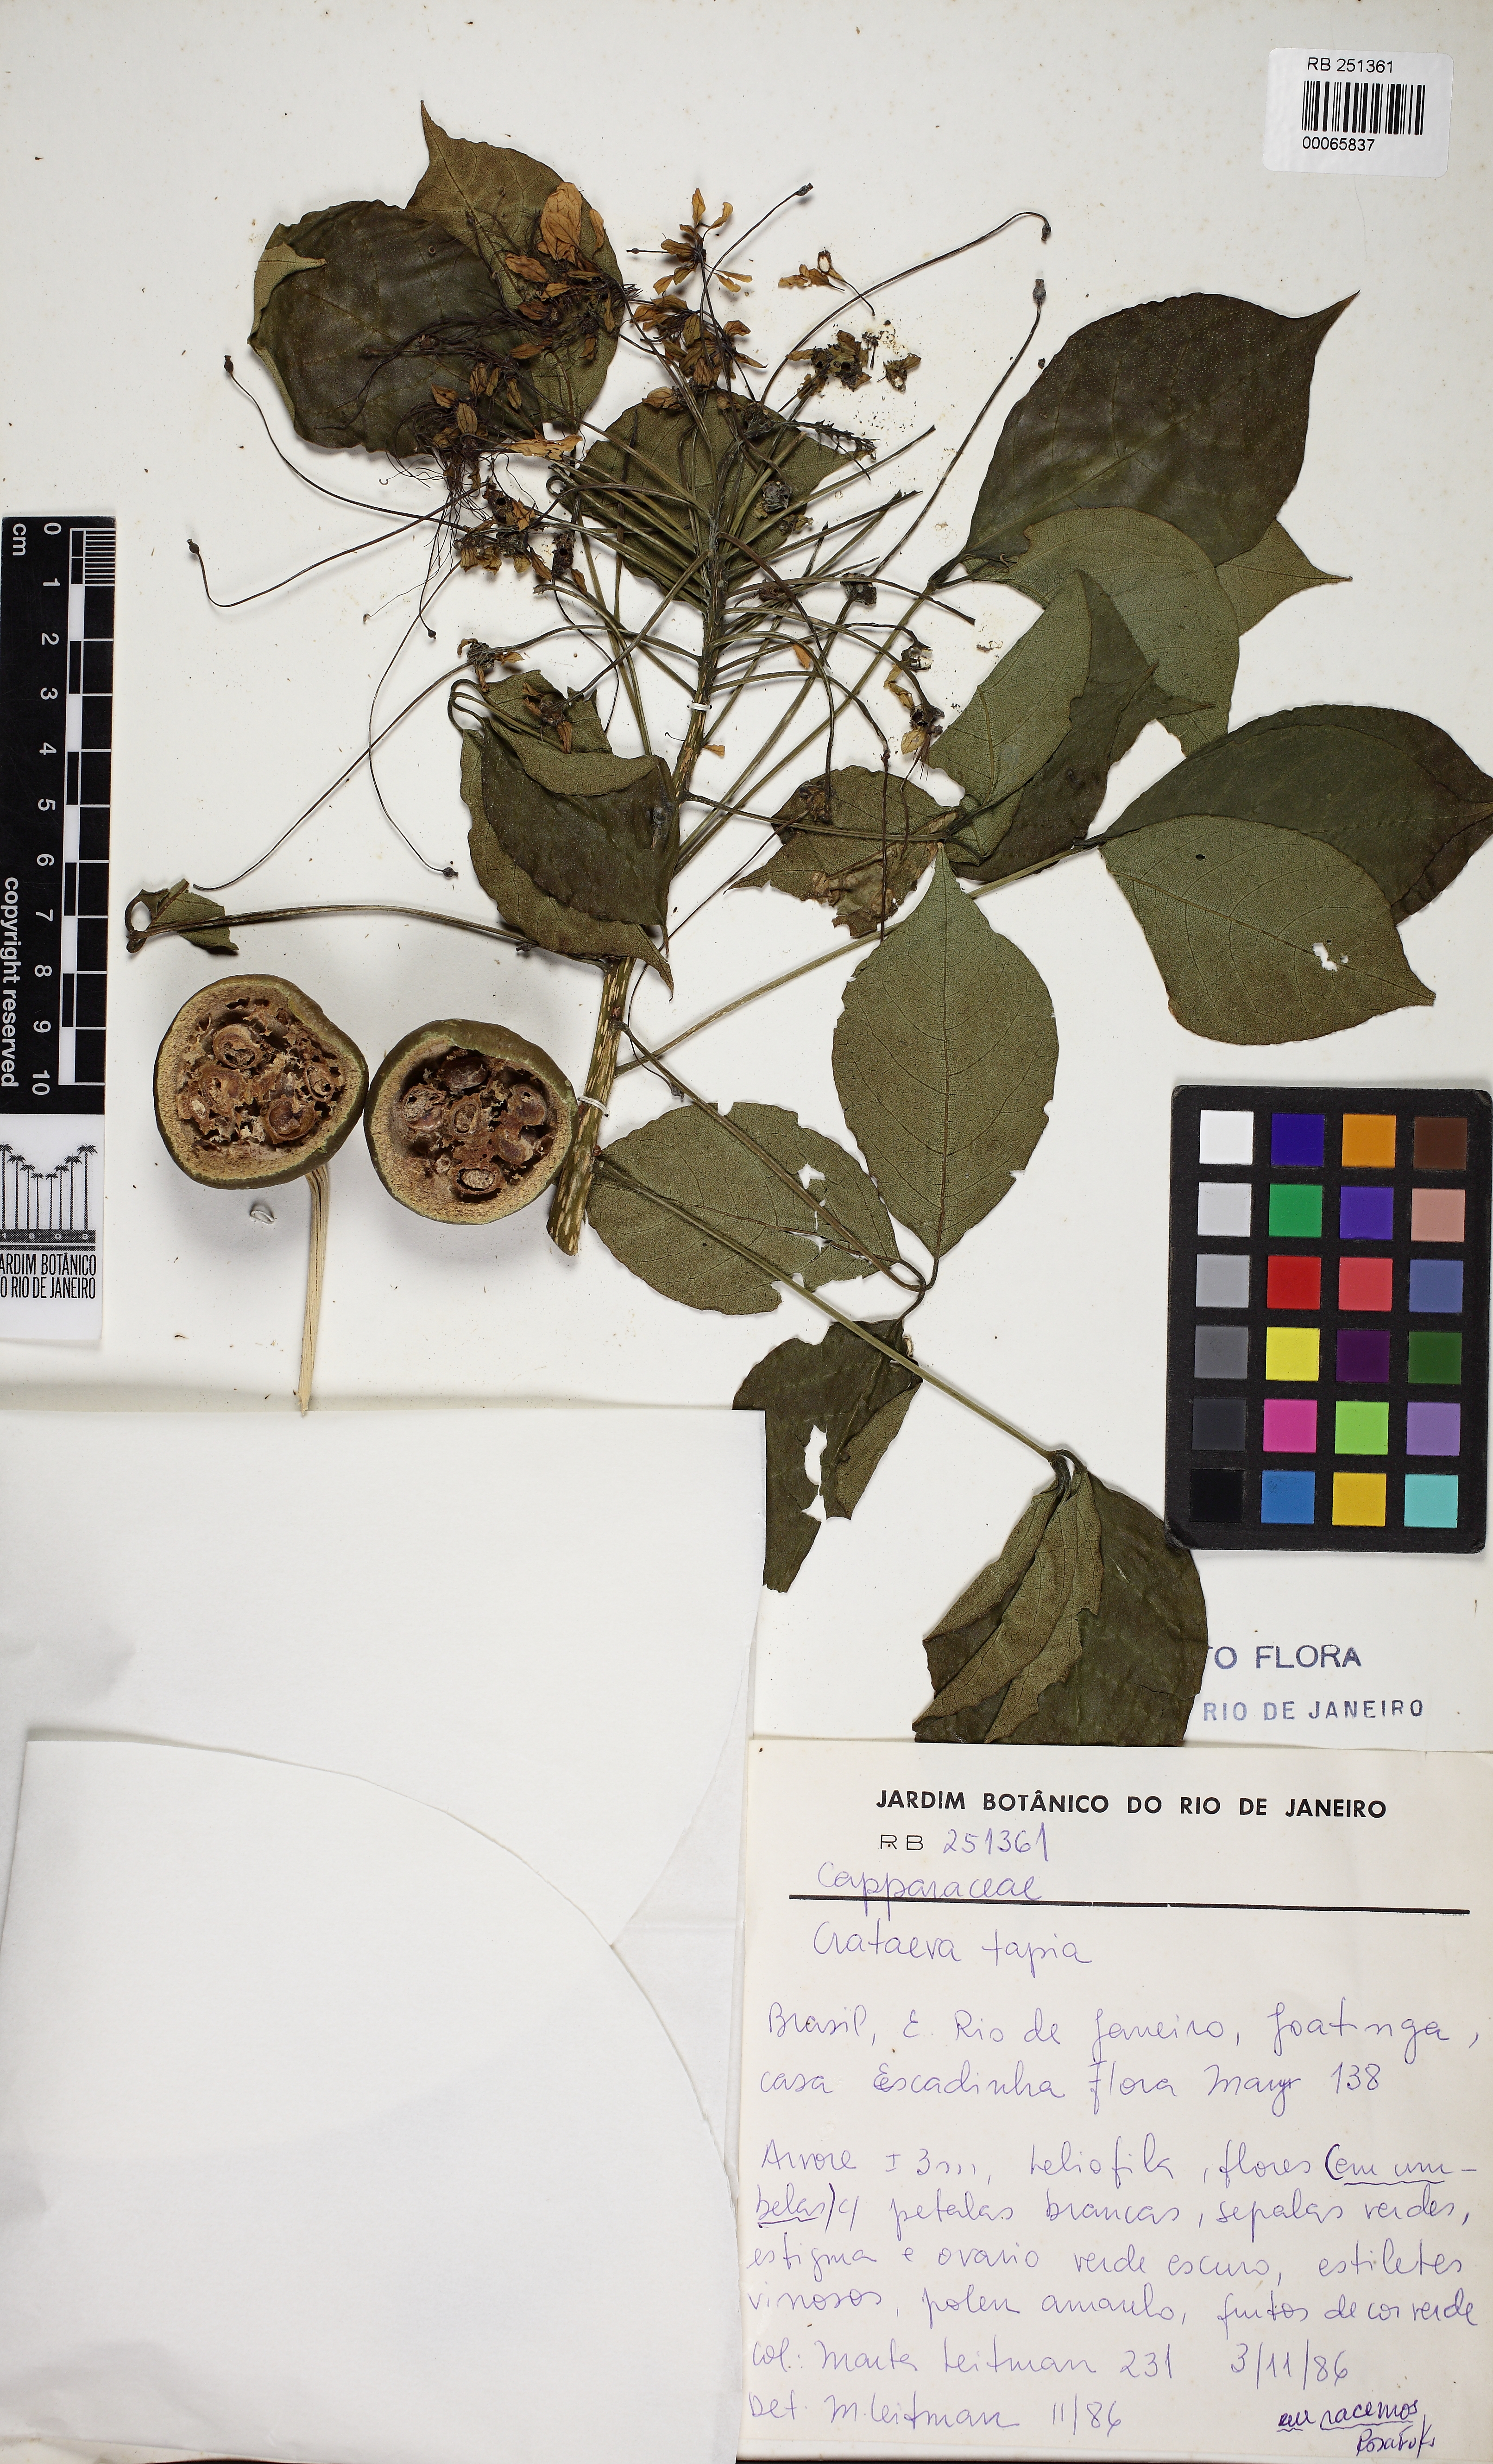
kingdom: Plantae
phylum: Tracheophyta
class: Magnoliopsida
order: Brassicales
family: Capparaceae
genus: Crateva
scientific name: Crateva tapia
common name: Garlic-pear
